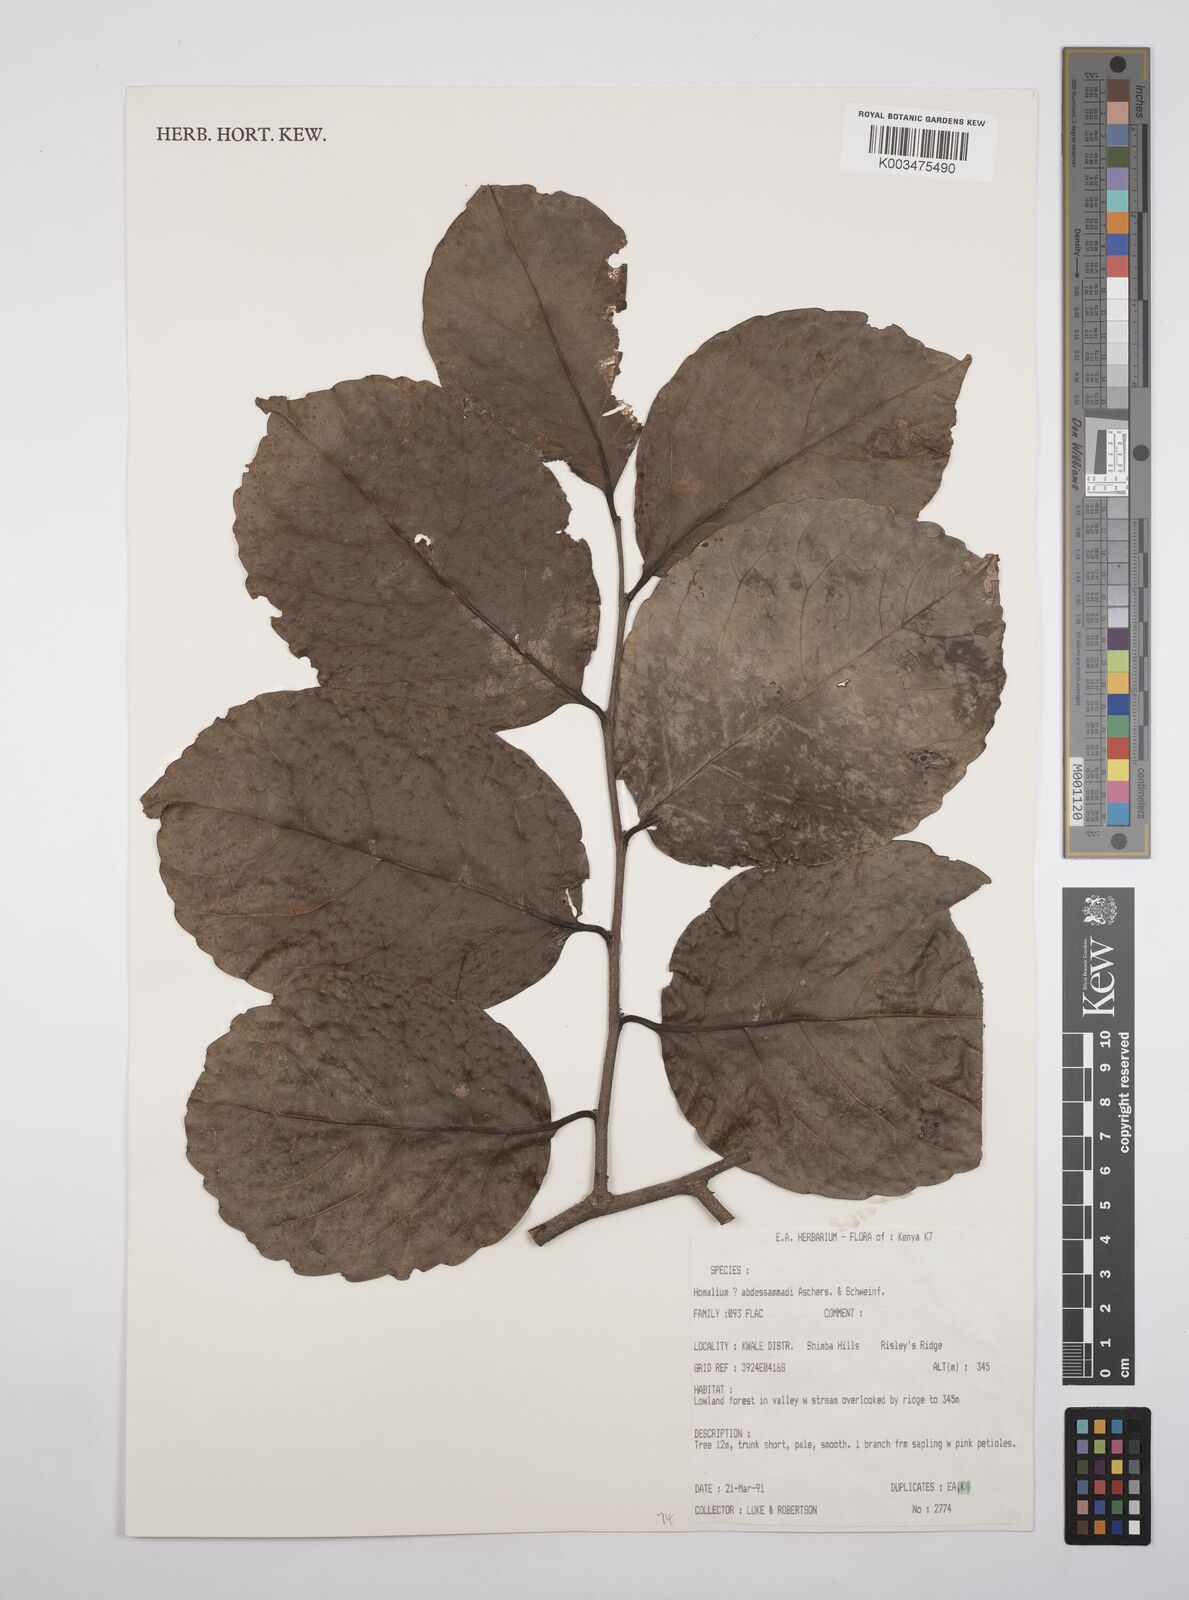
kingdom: Plantae
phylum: Tracheophyta
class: Magnoliopsida
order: Malpighiales
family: Salicaceae
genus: Homalium
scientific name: Homalium abdessammadii
